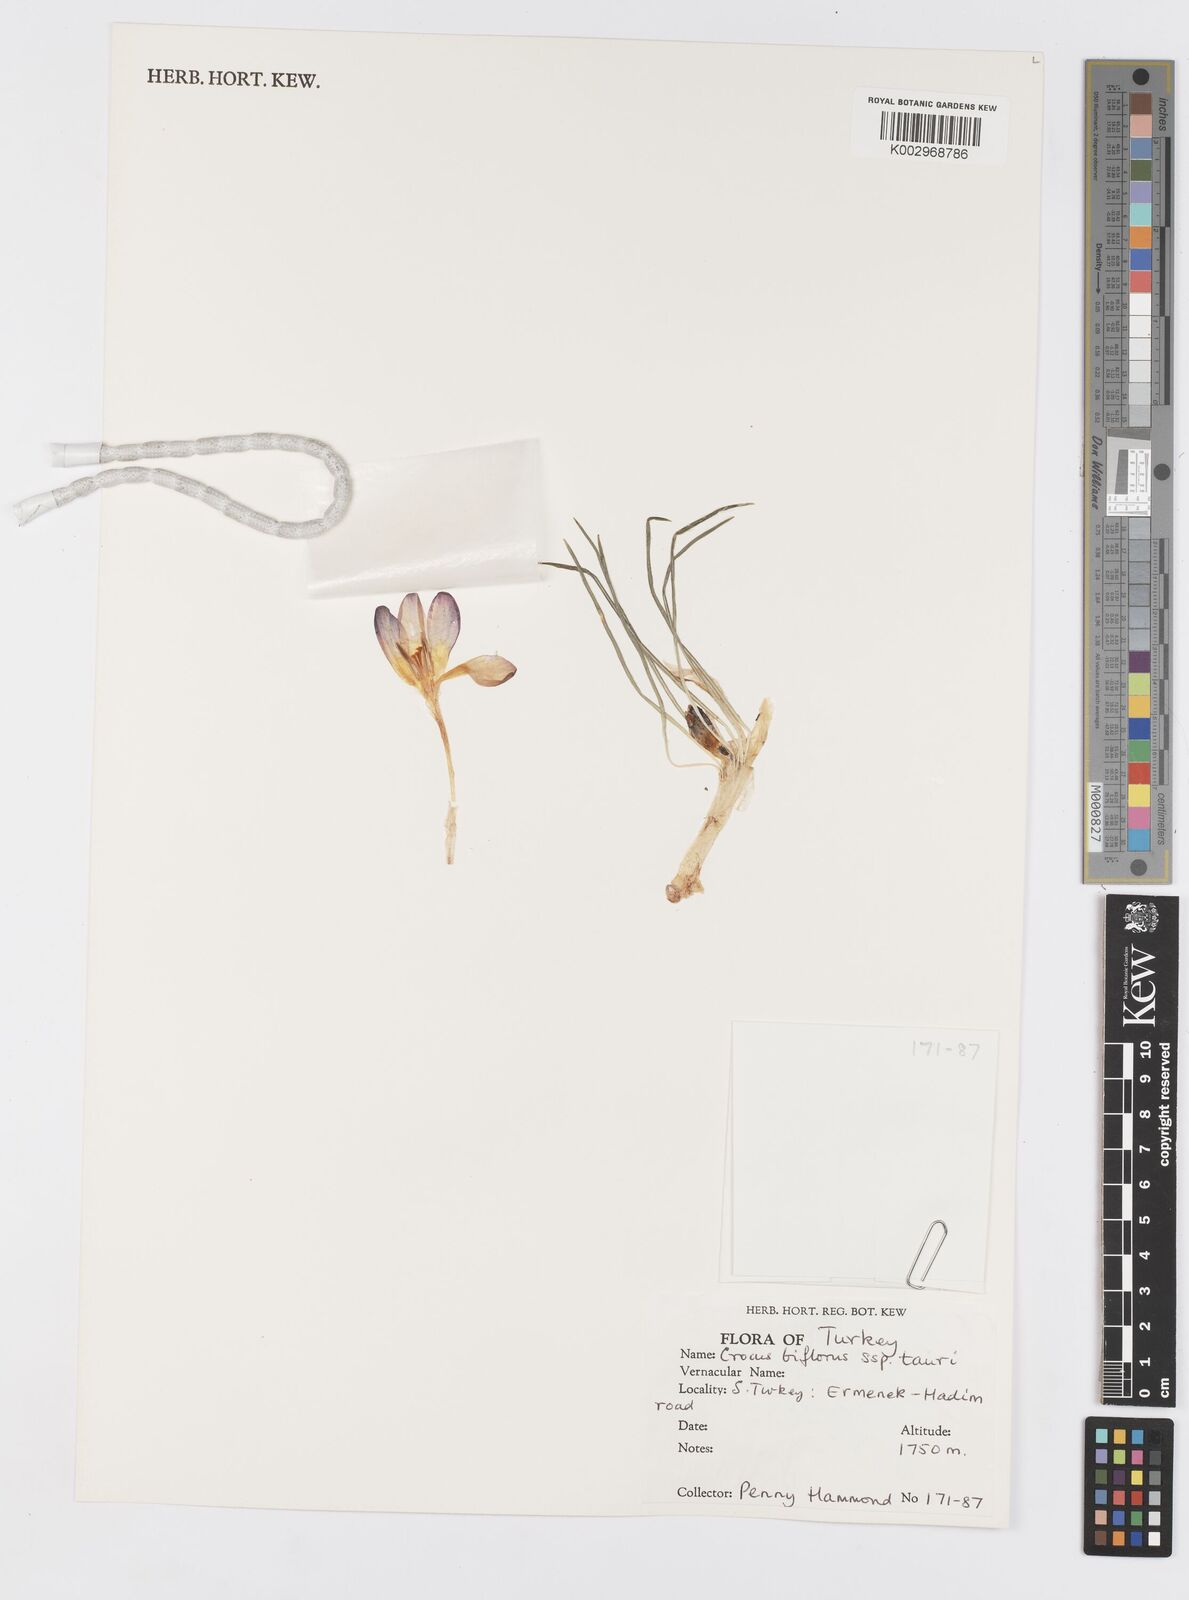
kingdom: Plantae
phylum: Tracheophyta
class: Liliopsida
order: Asparagales
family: Iridaceae
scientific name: Iridaceae
